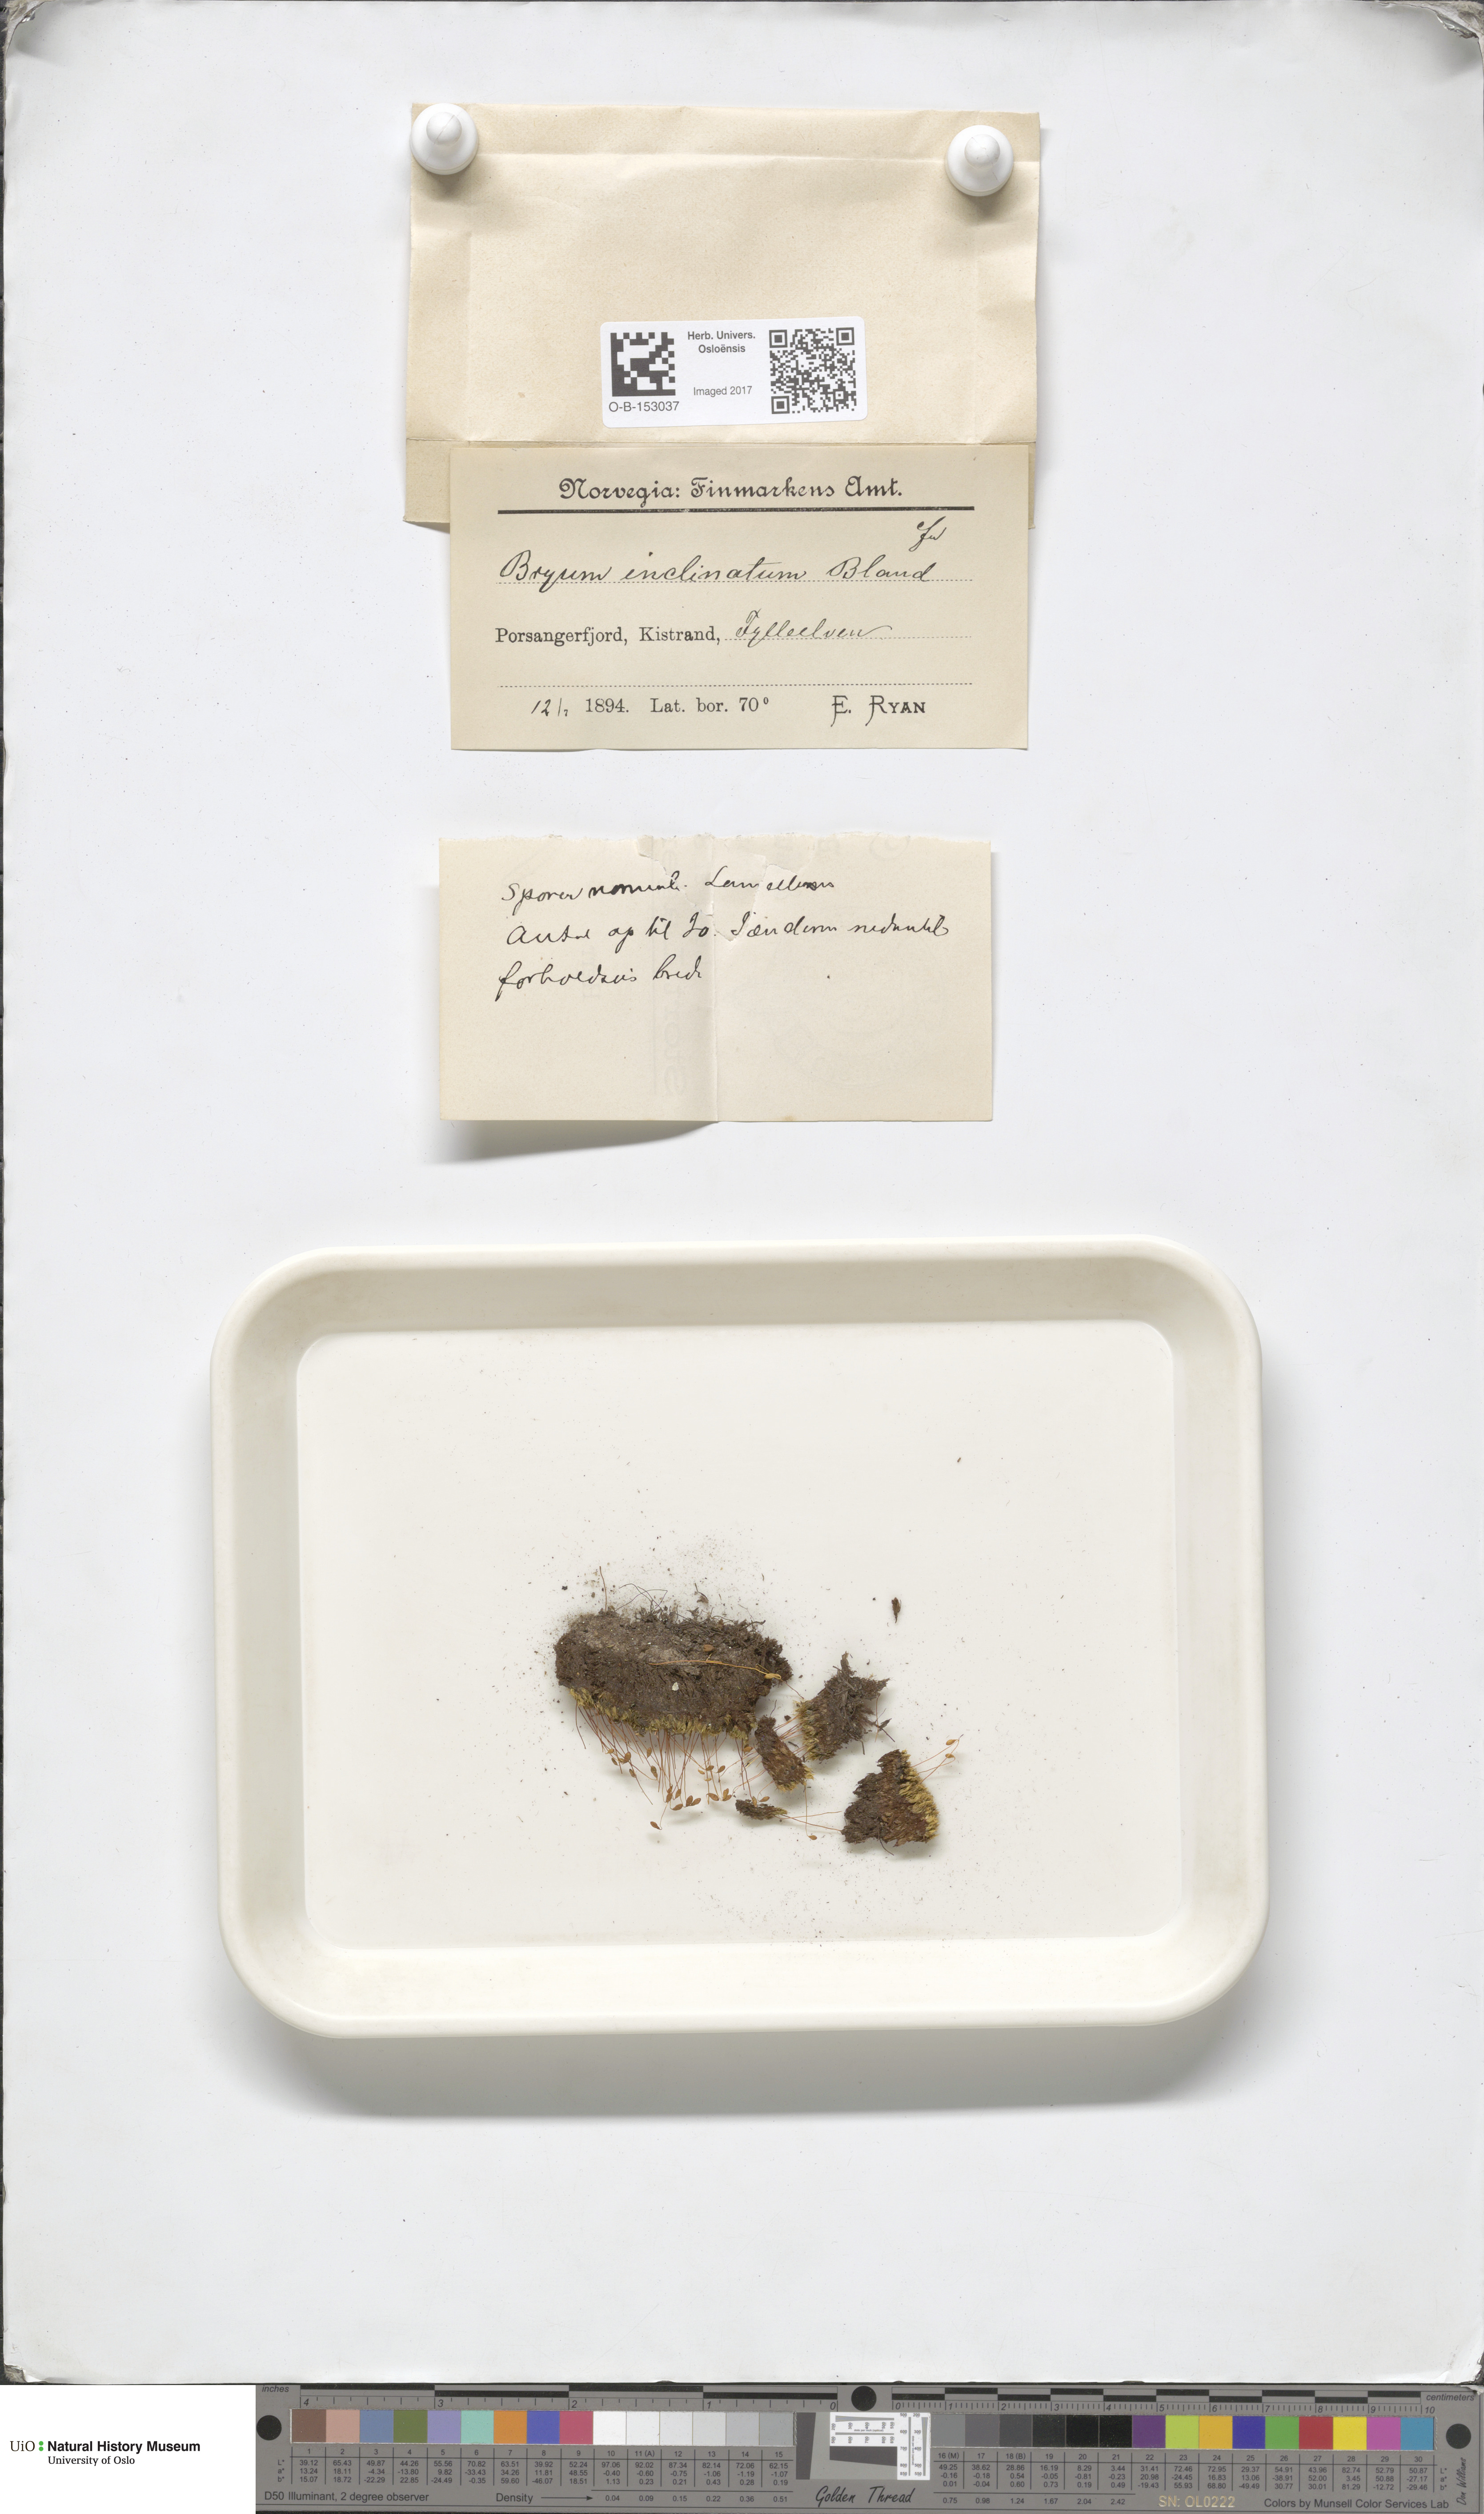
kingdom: Plantae
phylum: Bryophyta
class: Bryopsida
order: Bryales
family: Bryaceae
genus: Ptychostomum
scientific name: Ptychostomum inclinatum
